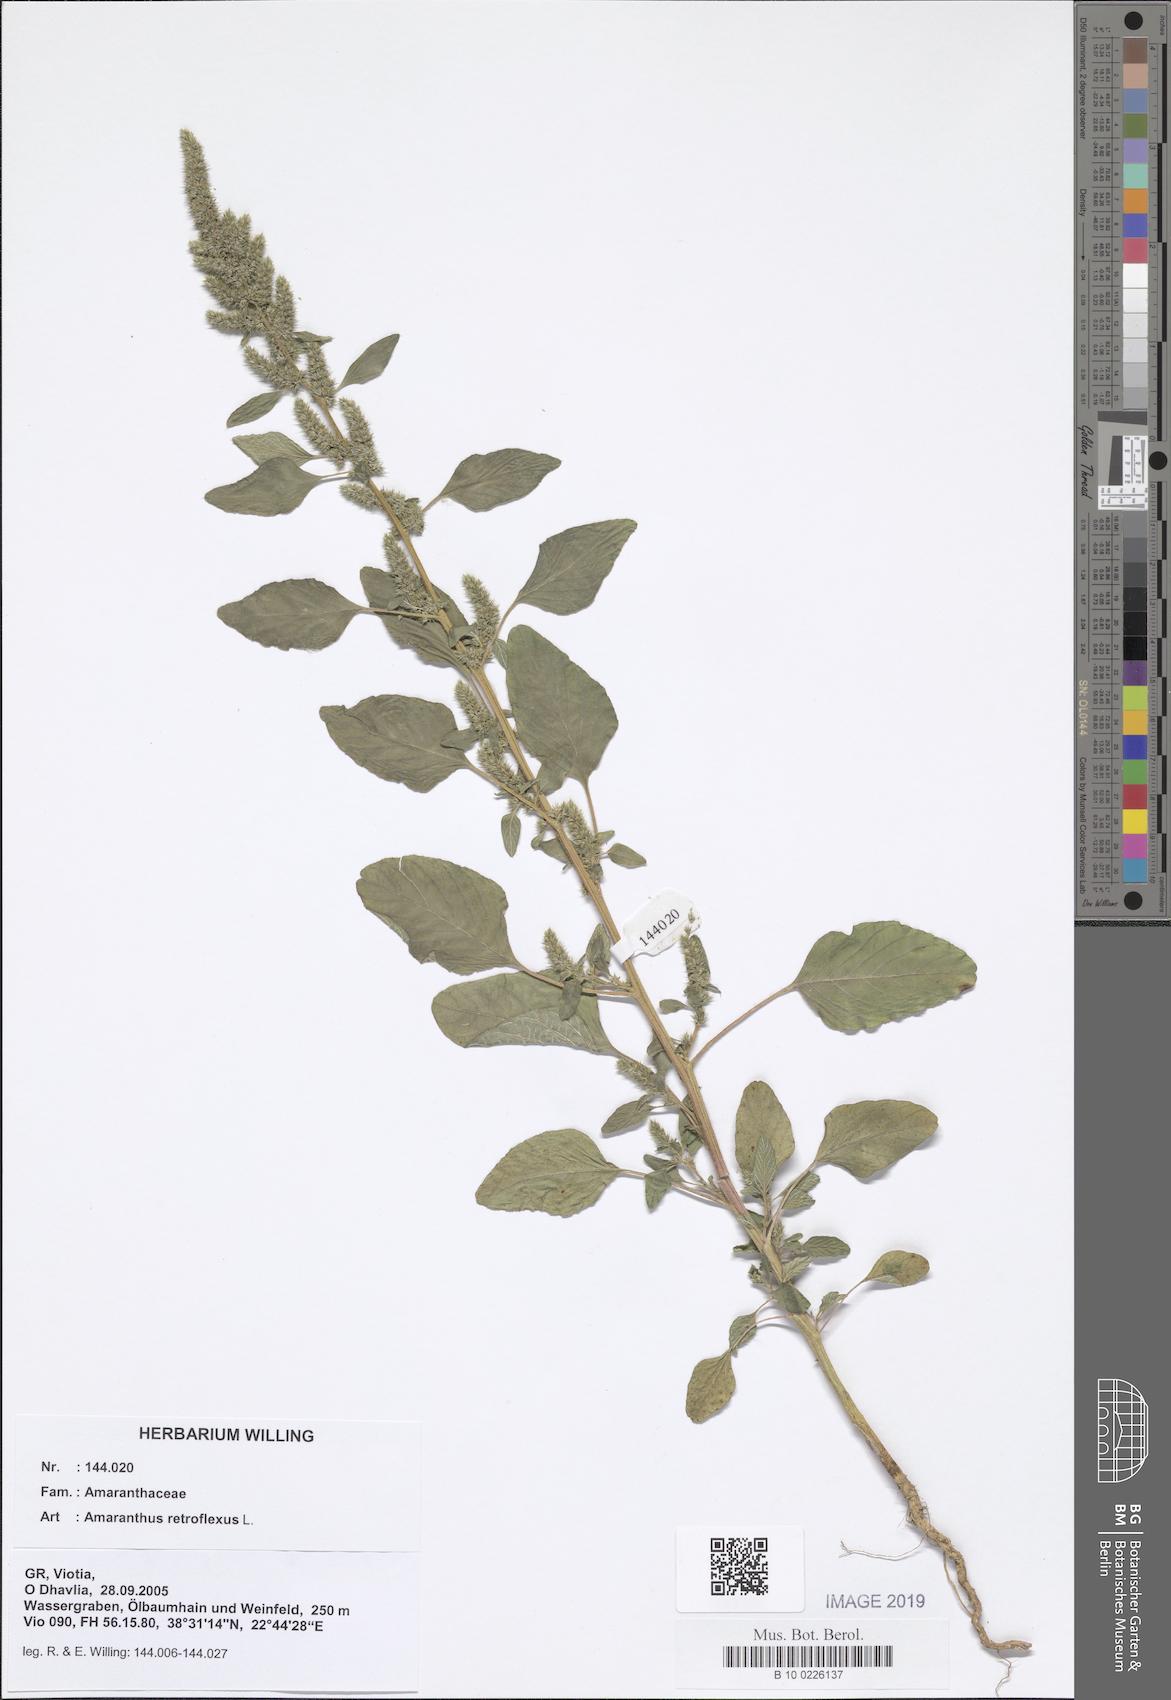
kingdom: Plantae
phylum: Tracheophyta
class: Magnoliopsida
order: Caryophyllales
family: Amaranthaceae
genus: Amaranthus
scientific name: Amaranthus retroflexus
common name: Redroot amaranth
